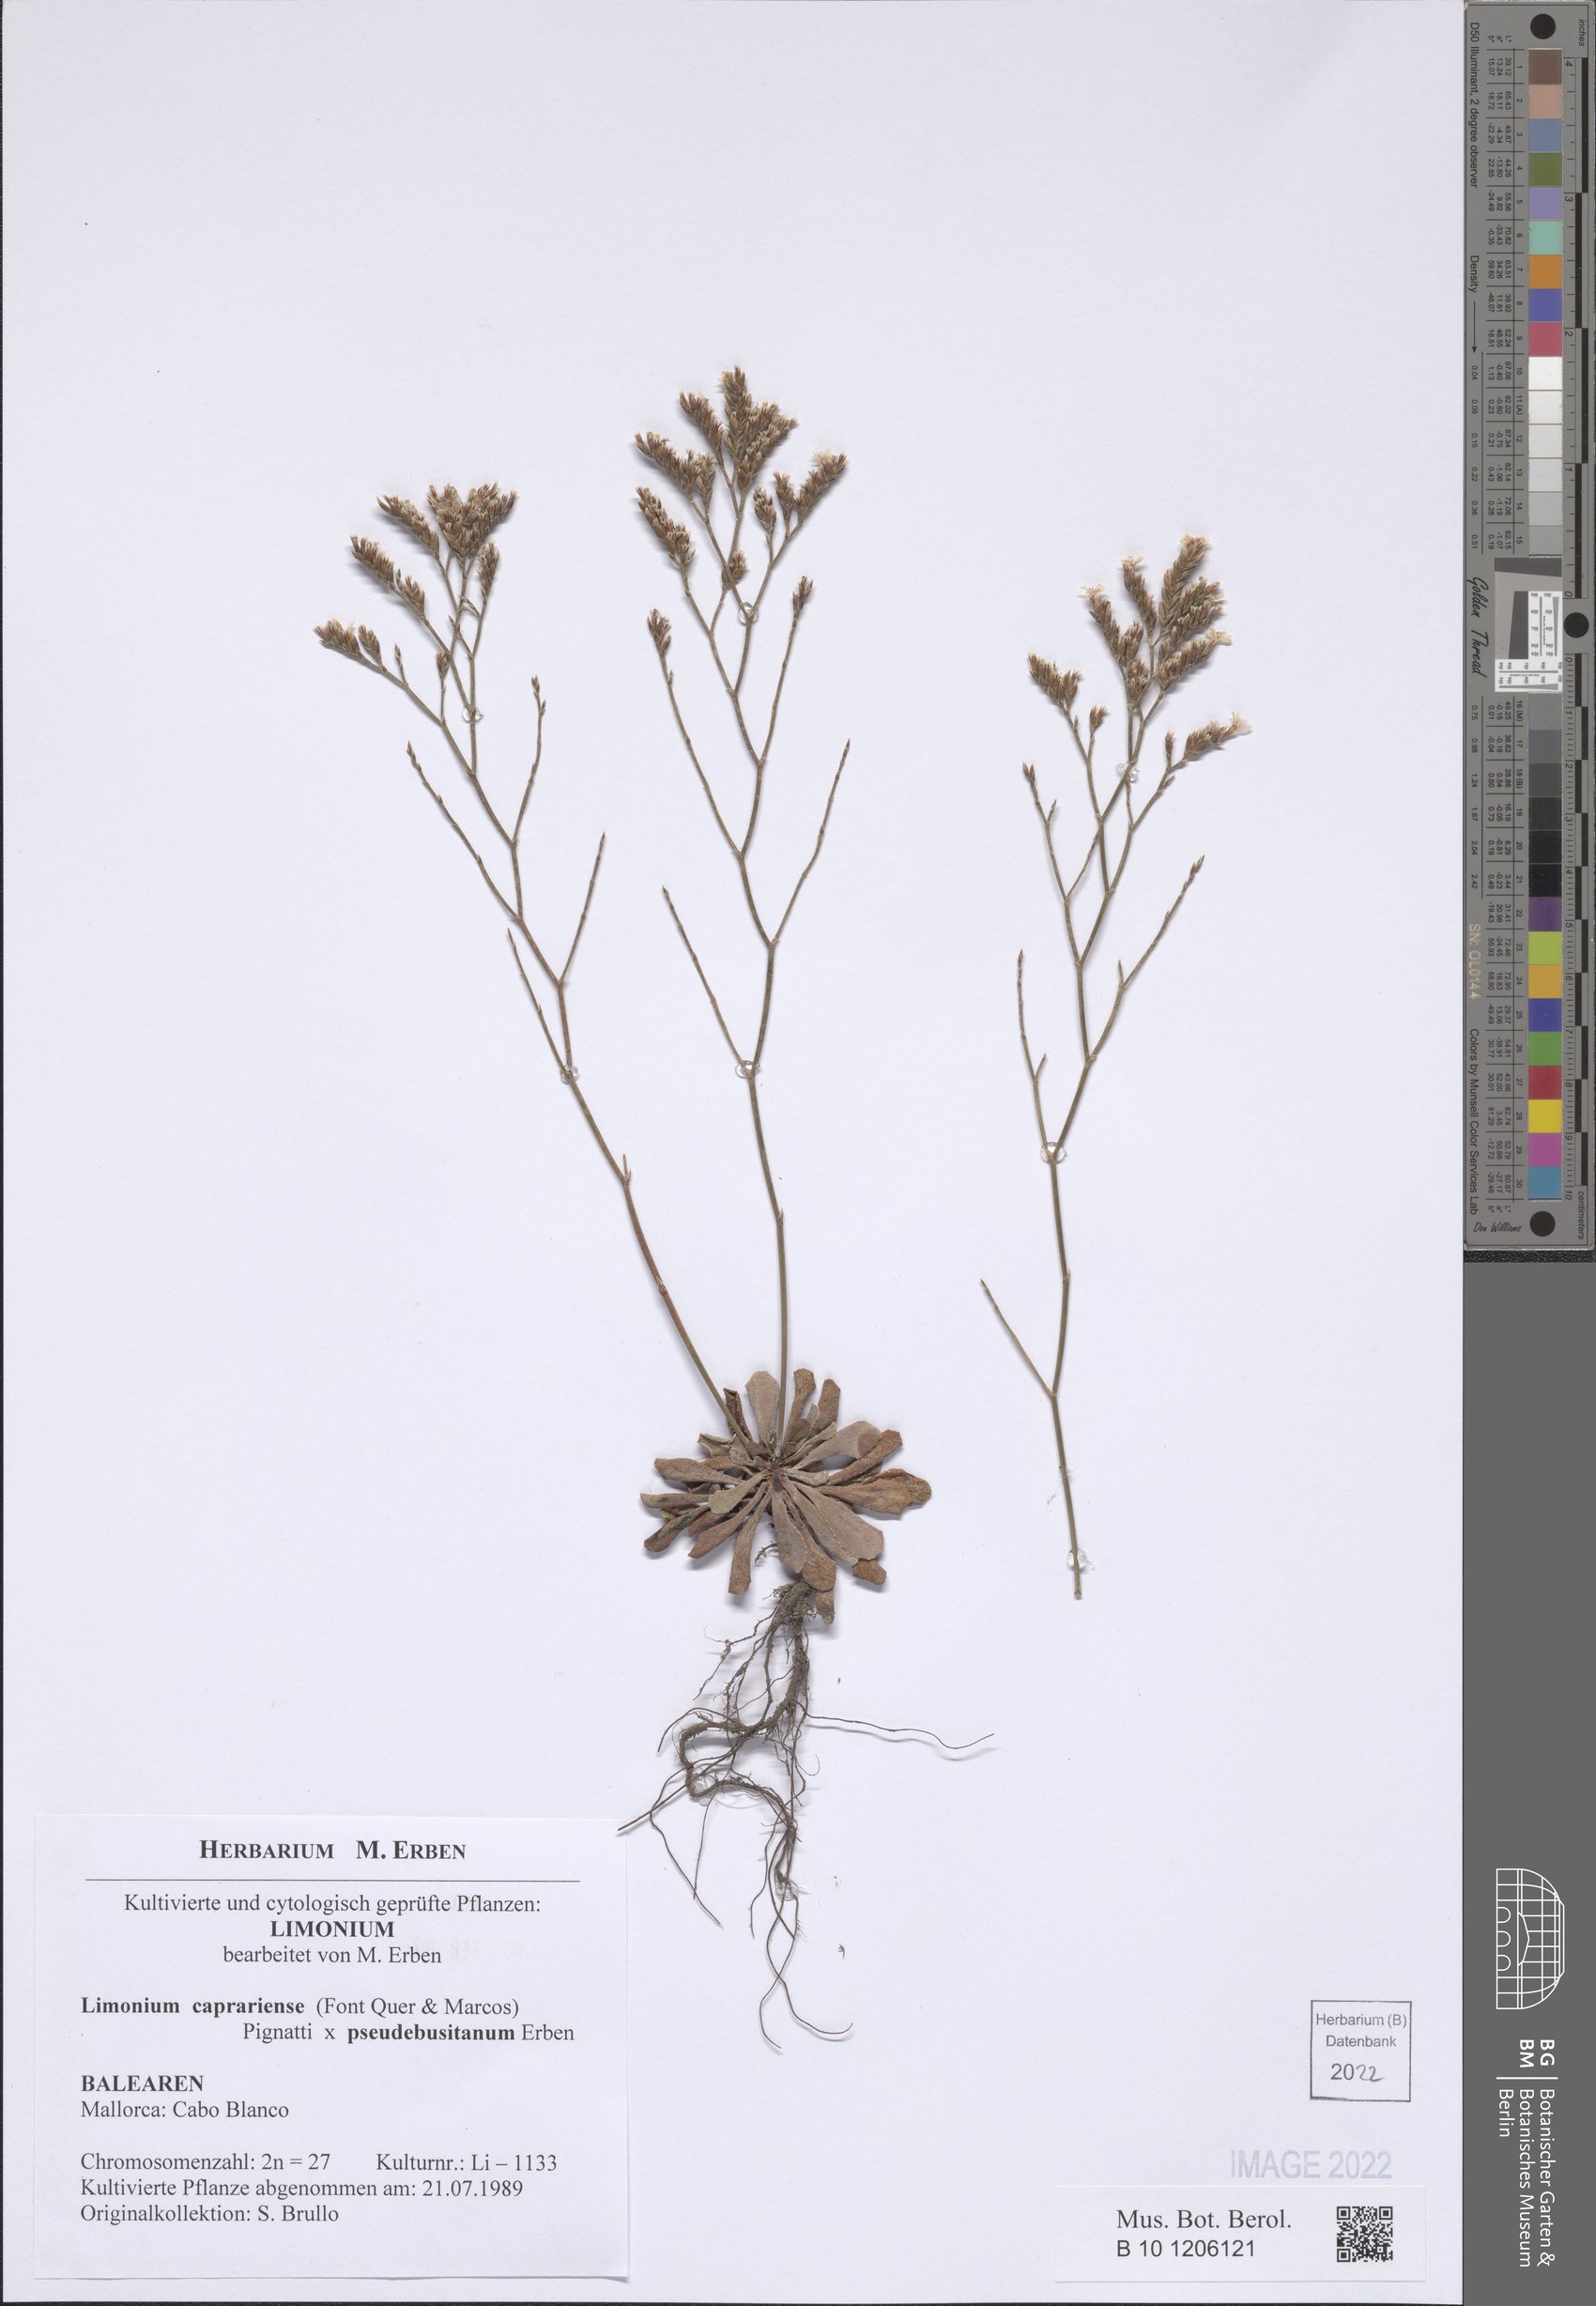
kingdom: Plantae
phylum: Tracheophyta
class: Magnoliopsida
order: Caryophyllales
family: Plumbaginaceae
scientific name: Plumbaginaceae
